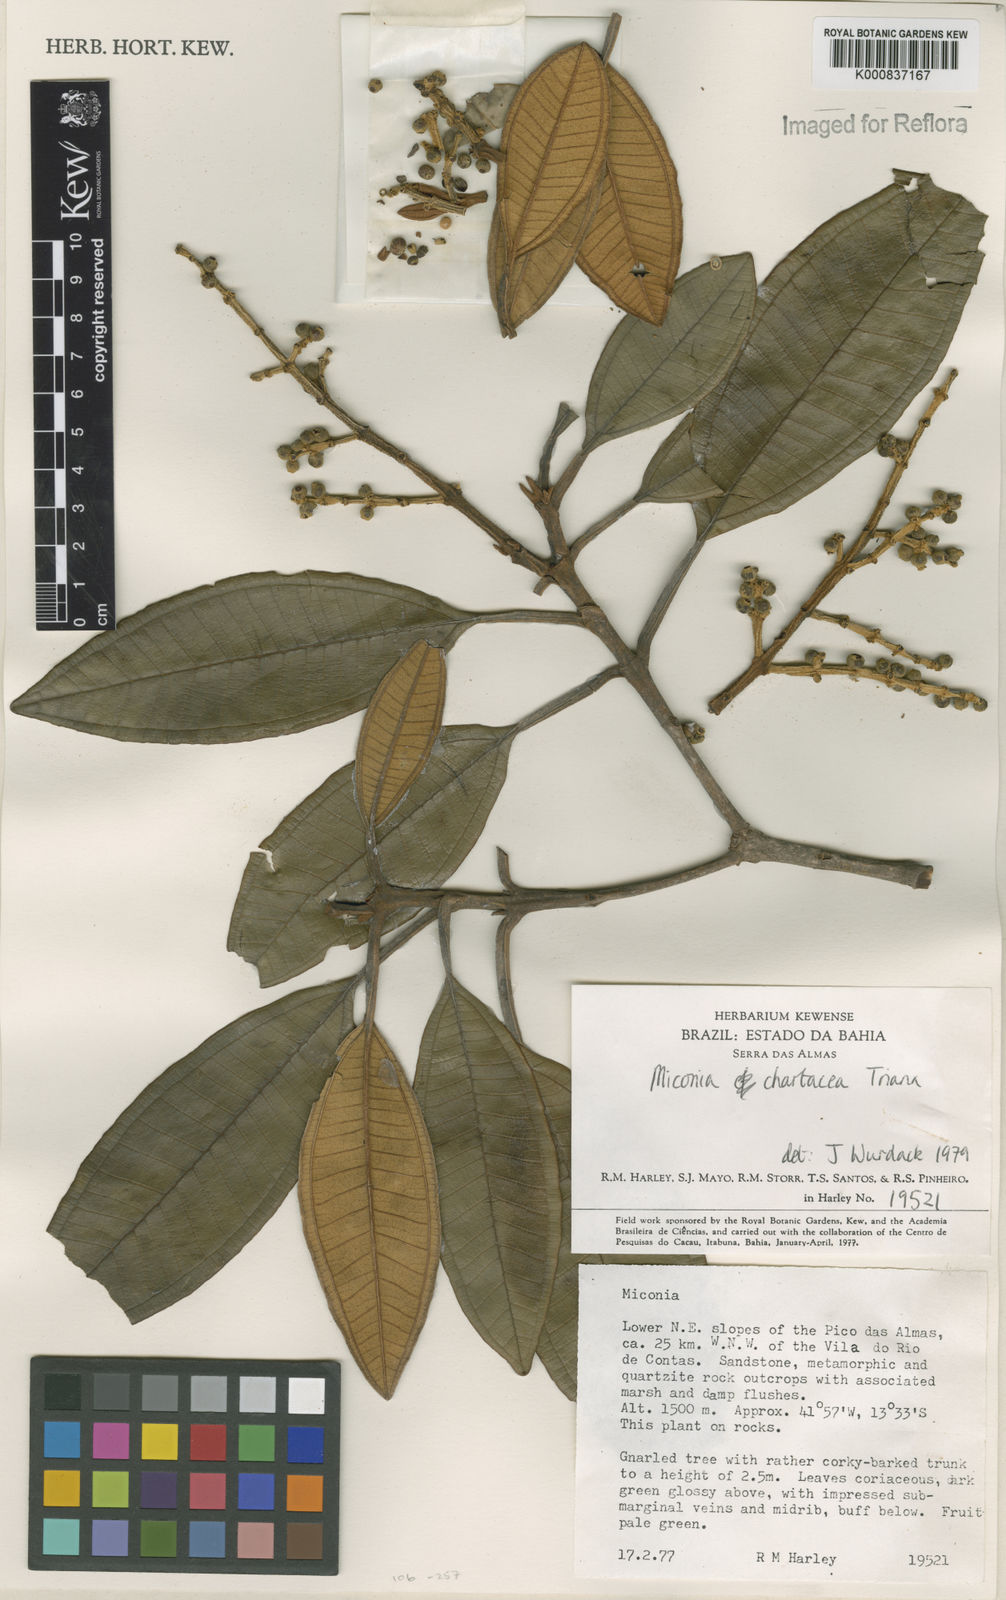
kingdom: Plantae
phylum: Tracheophyta
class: Magnoliopsida
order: Myrtales
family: Melastomataceae
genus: Miconia
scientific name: Miconia chartacea
